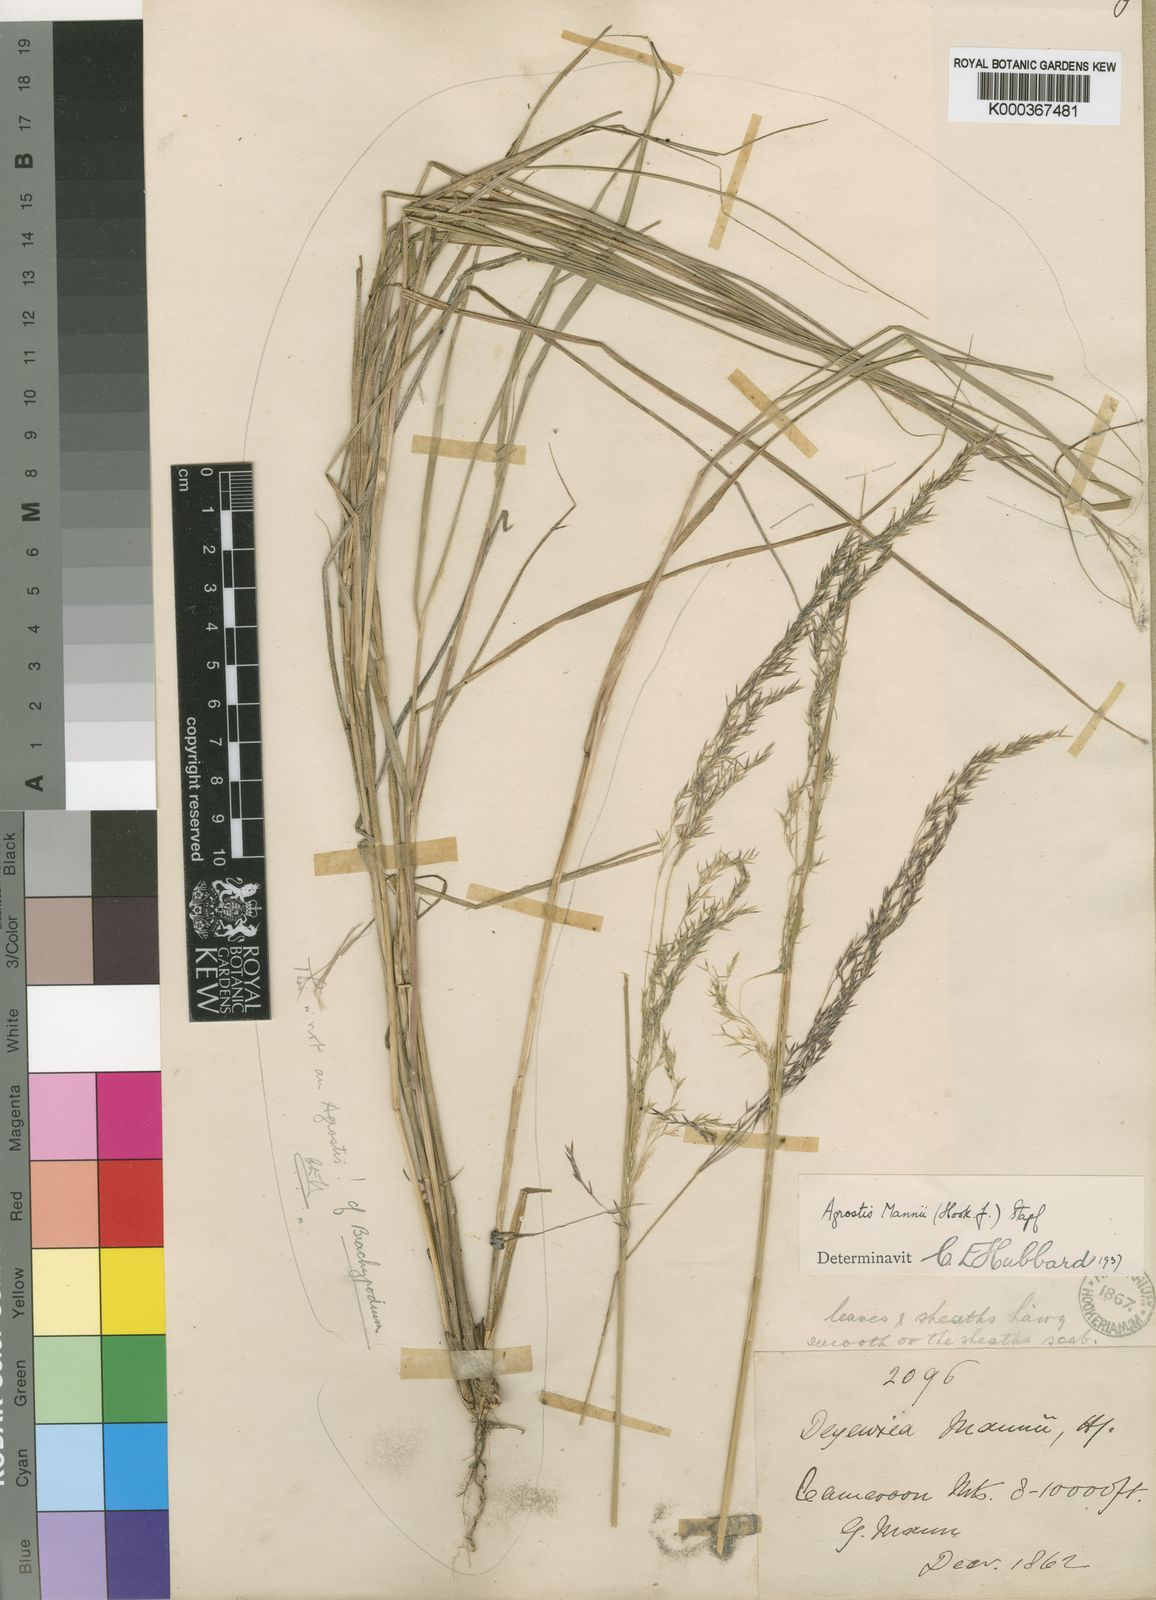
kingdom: Plantae
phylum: Tracheophyta
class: Liliopsida
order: Poales
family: Poaceae
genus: Agrostis
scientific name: Agrostis mannii
